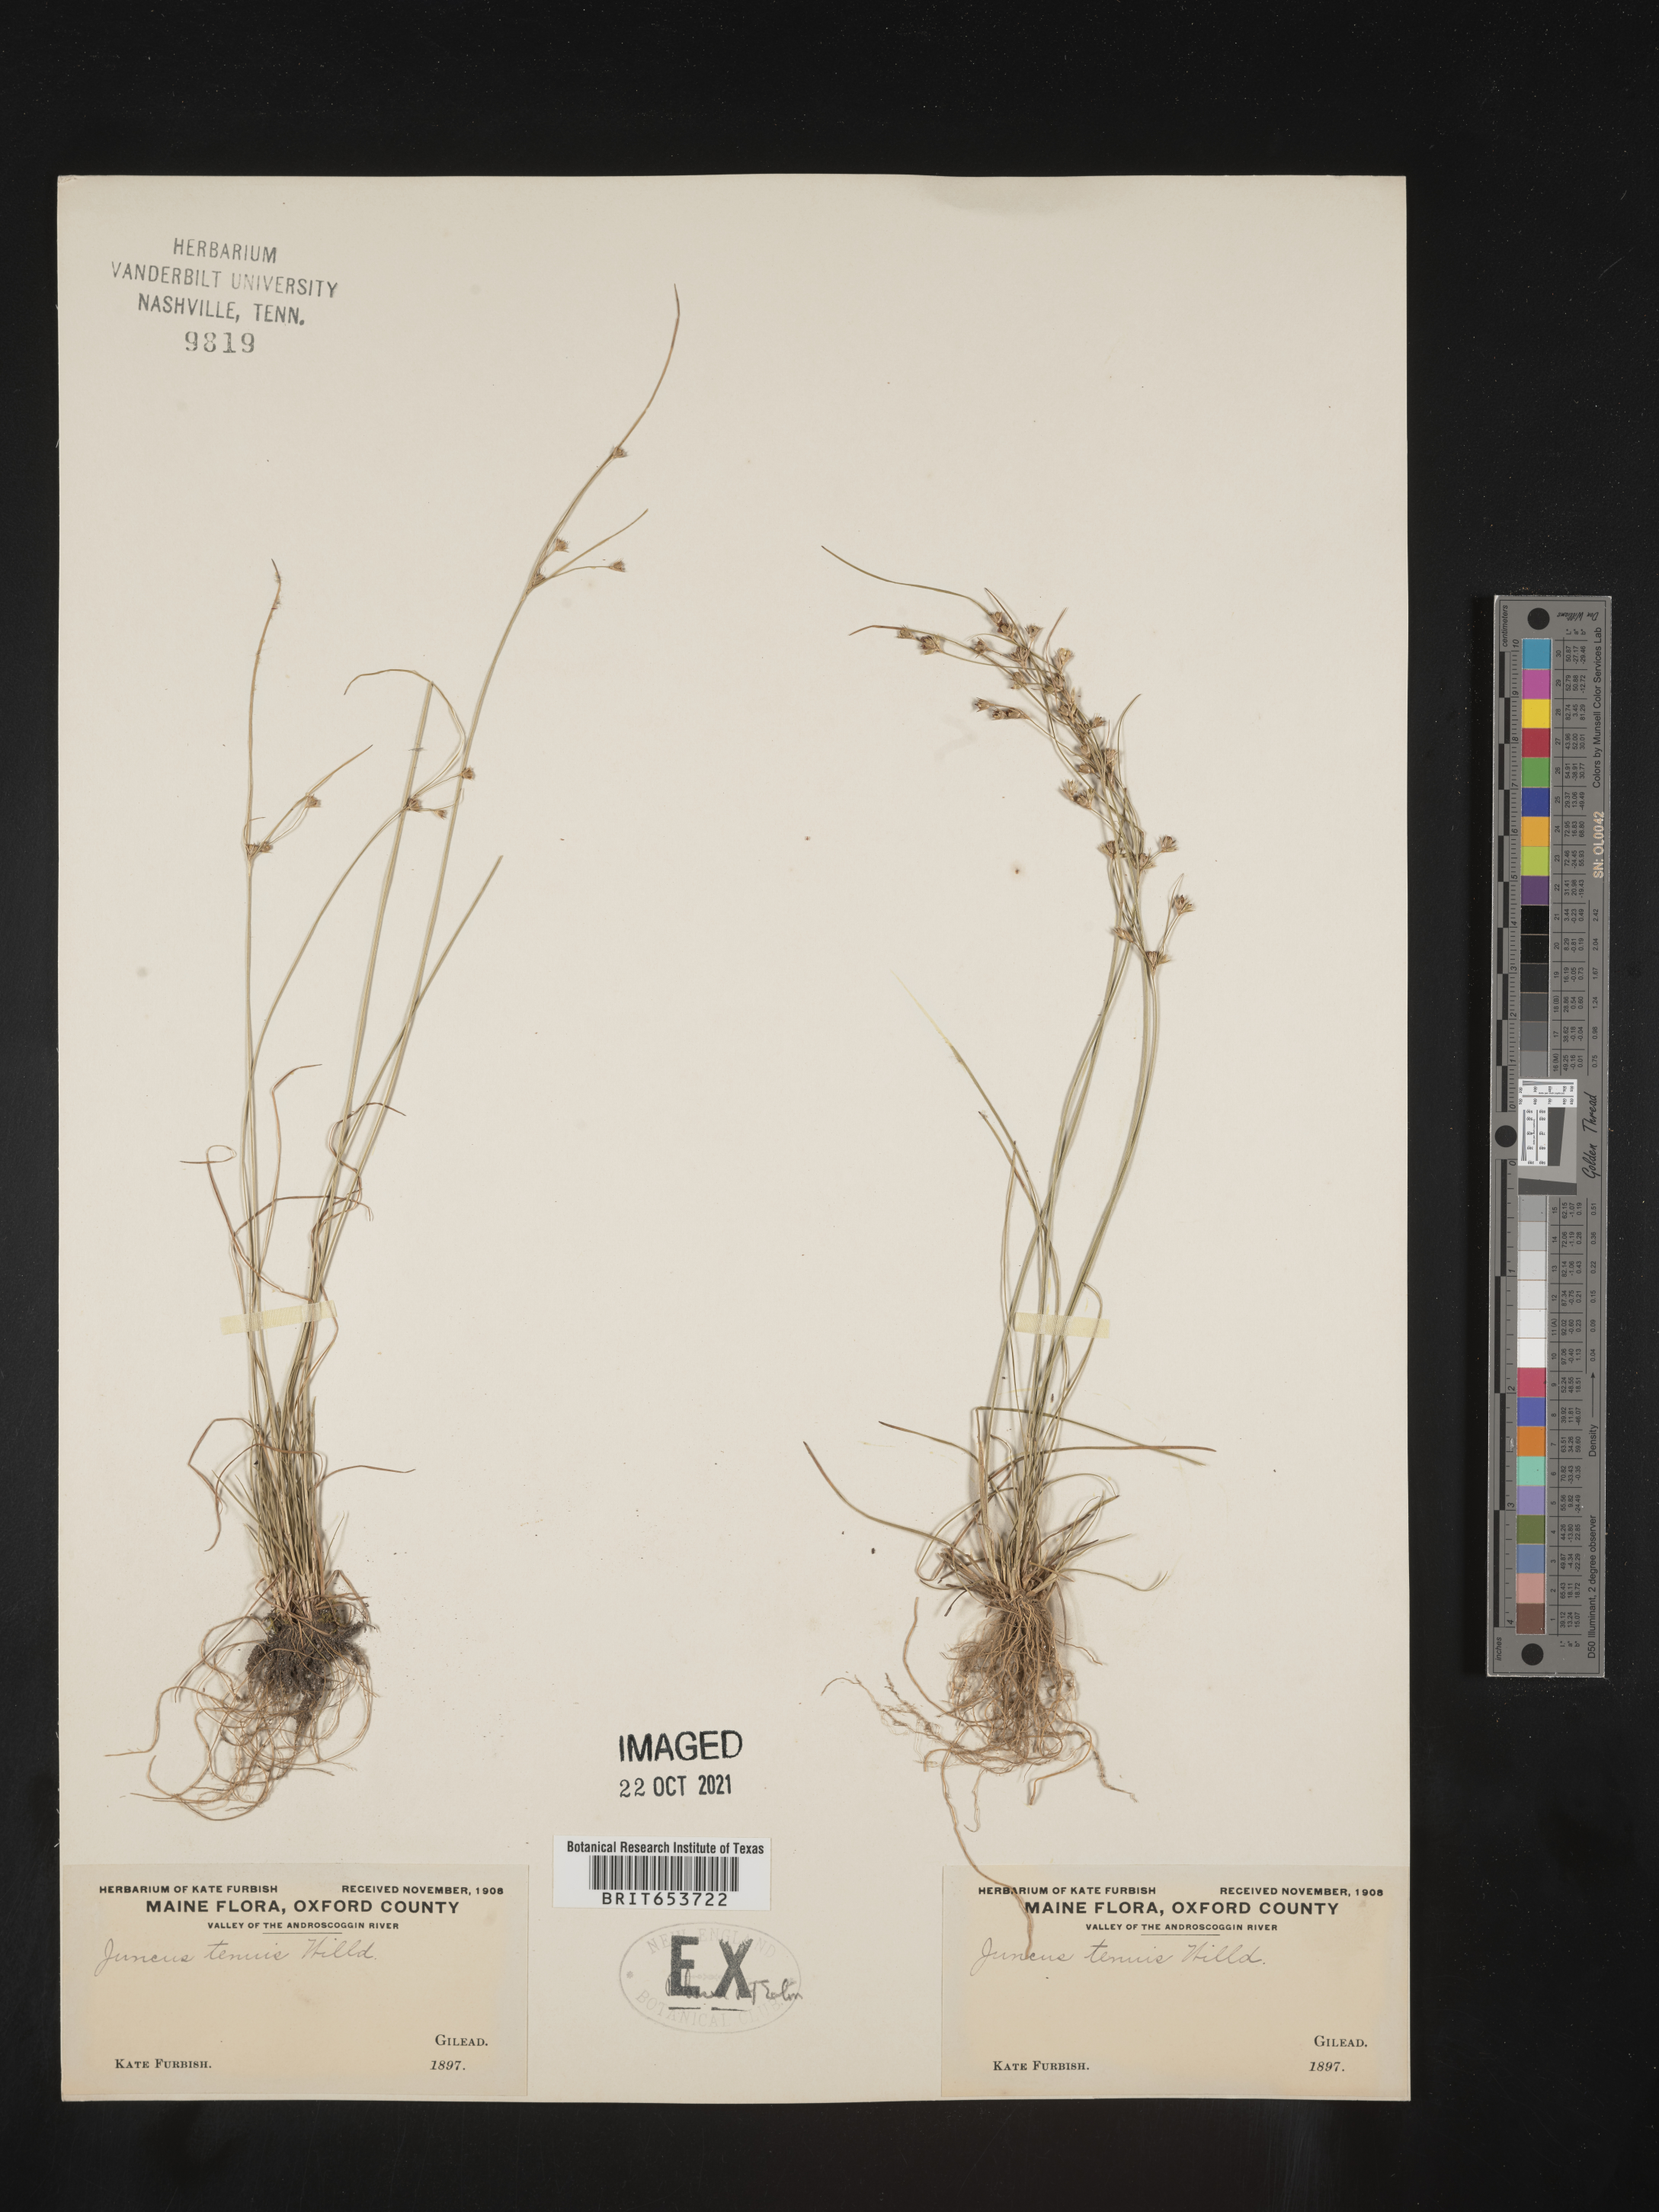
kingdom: Plantae
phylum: Tracheophyta
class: Liliopsida
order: Poales
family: Juncaceae
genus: Juncus
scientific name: Juncus tenuis
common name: Slender rush
